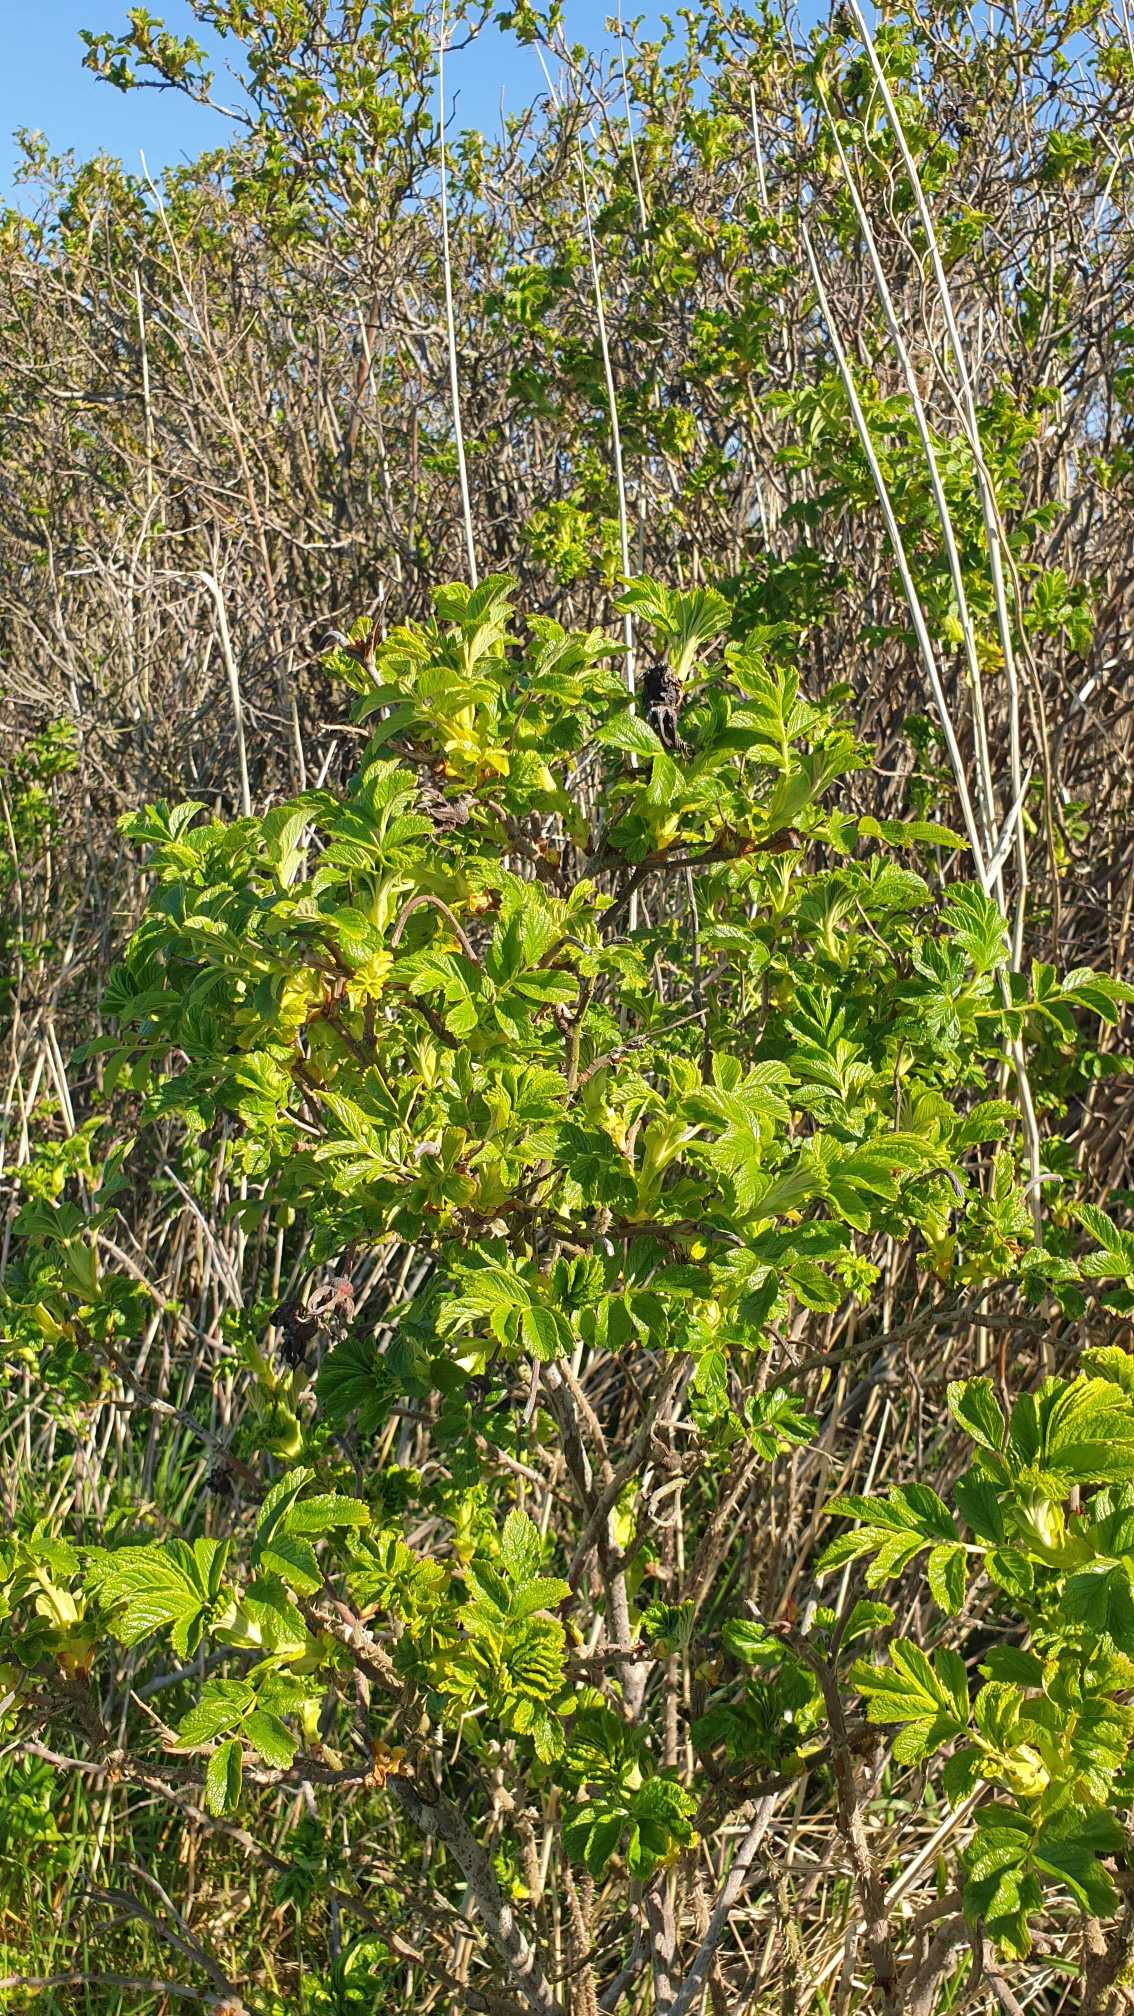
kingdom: Plantae
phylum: Tracheophyta
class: Magnoliopsida
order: Rosales
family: Rosaceae
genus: Rosa
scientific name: Rosa rugosa
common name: Rynket rose
